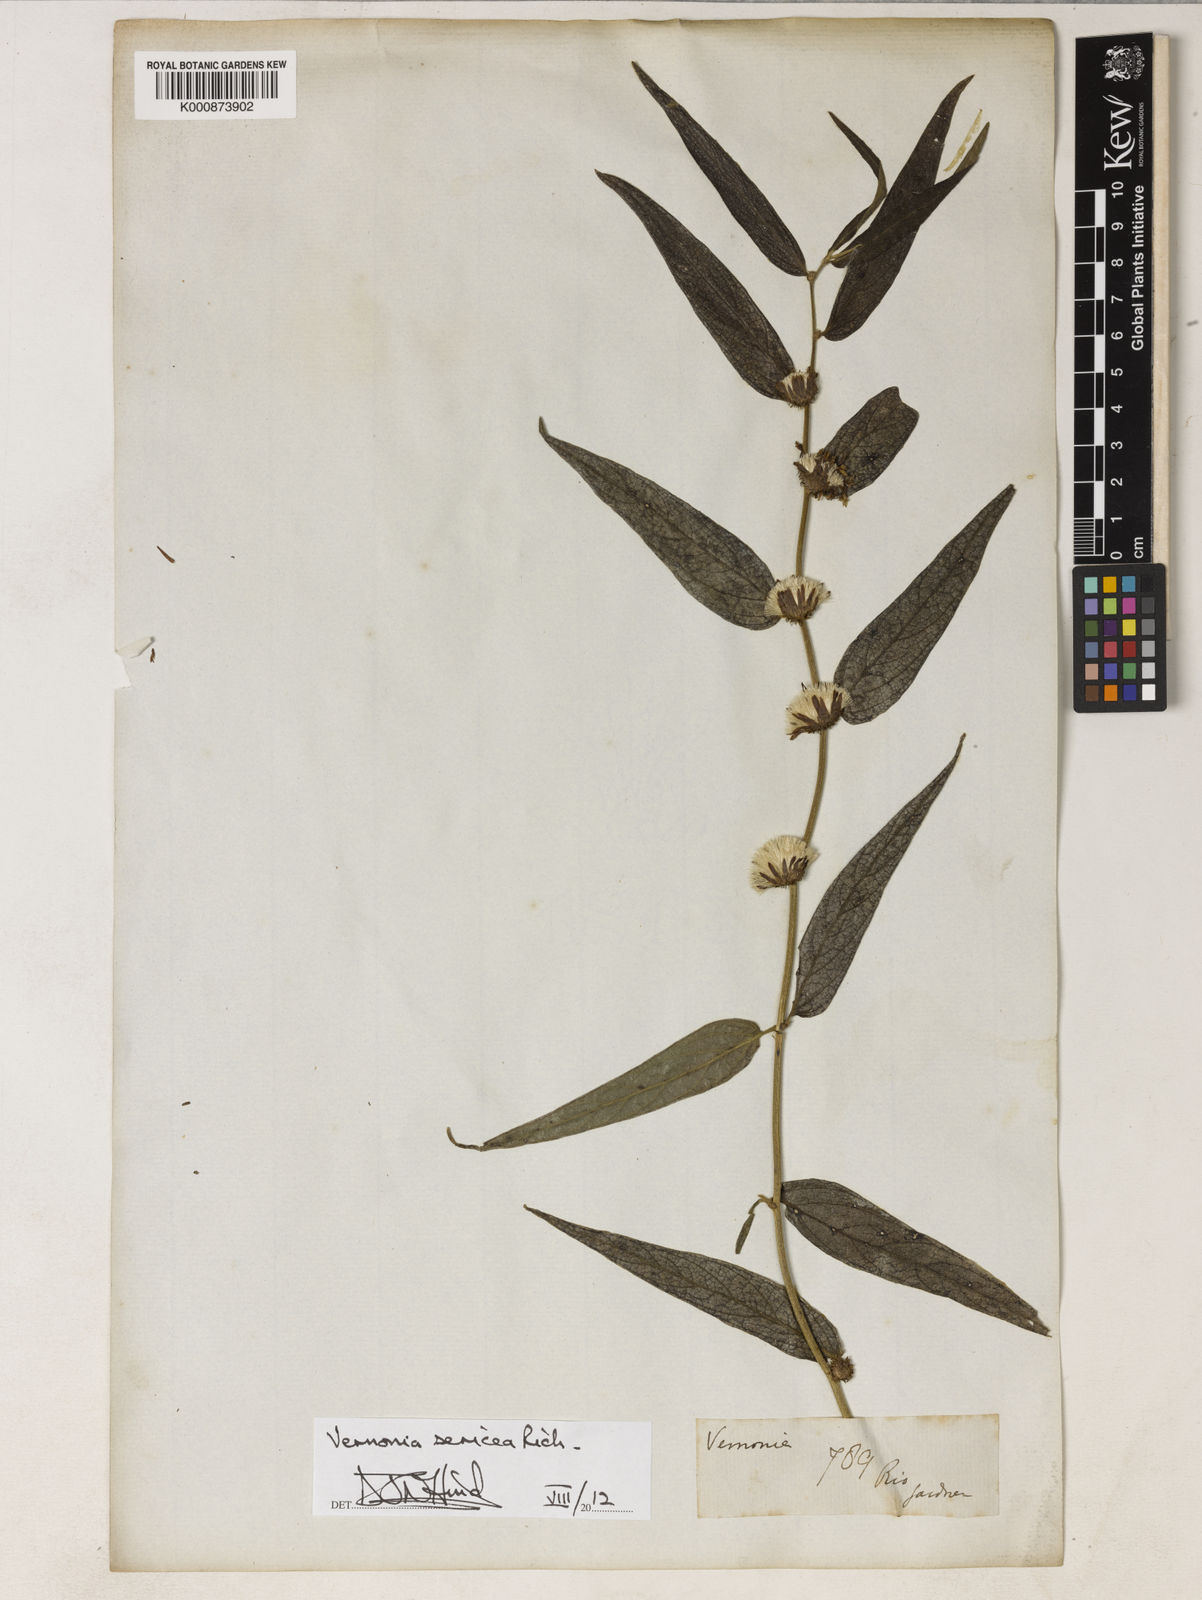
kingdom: Plantae
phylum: Tracheophyta
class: Magnoliopsida
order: Asterales
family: Asteraceae
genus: Lepidaploa
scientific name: Lepidaploa sericea
